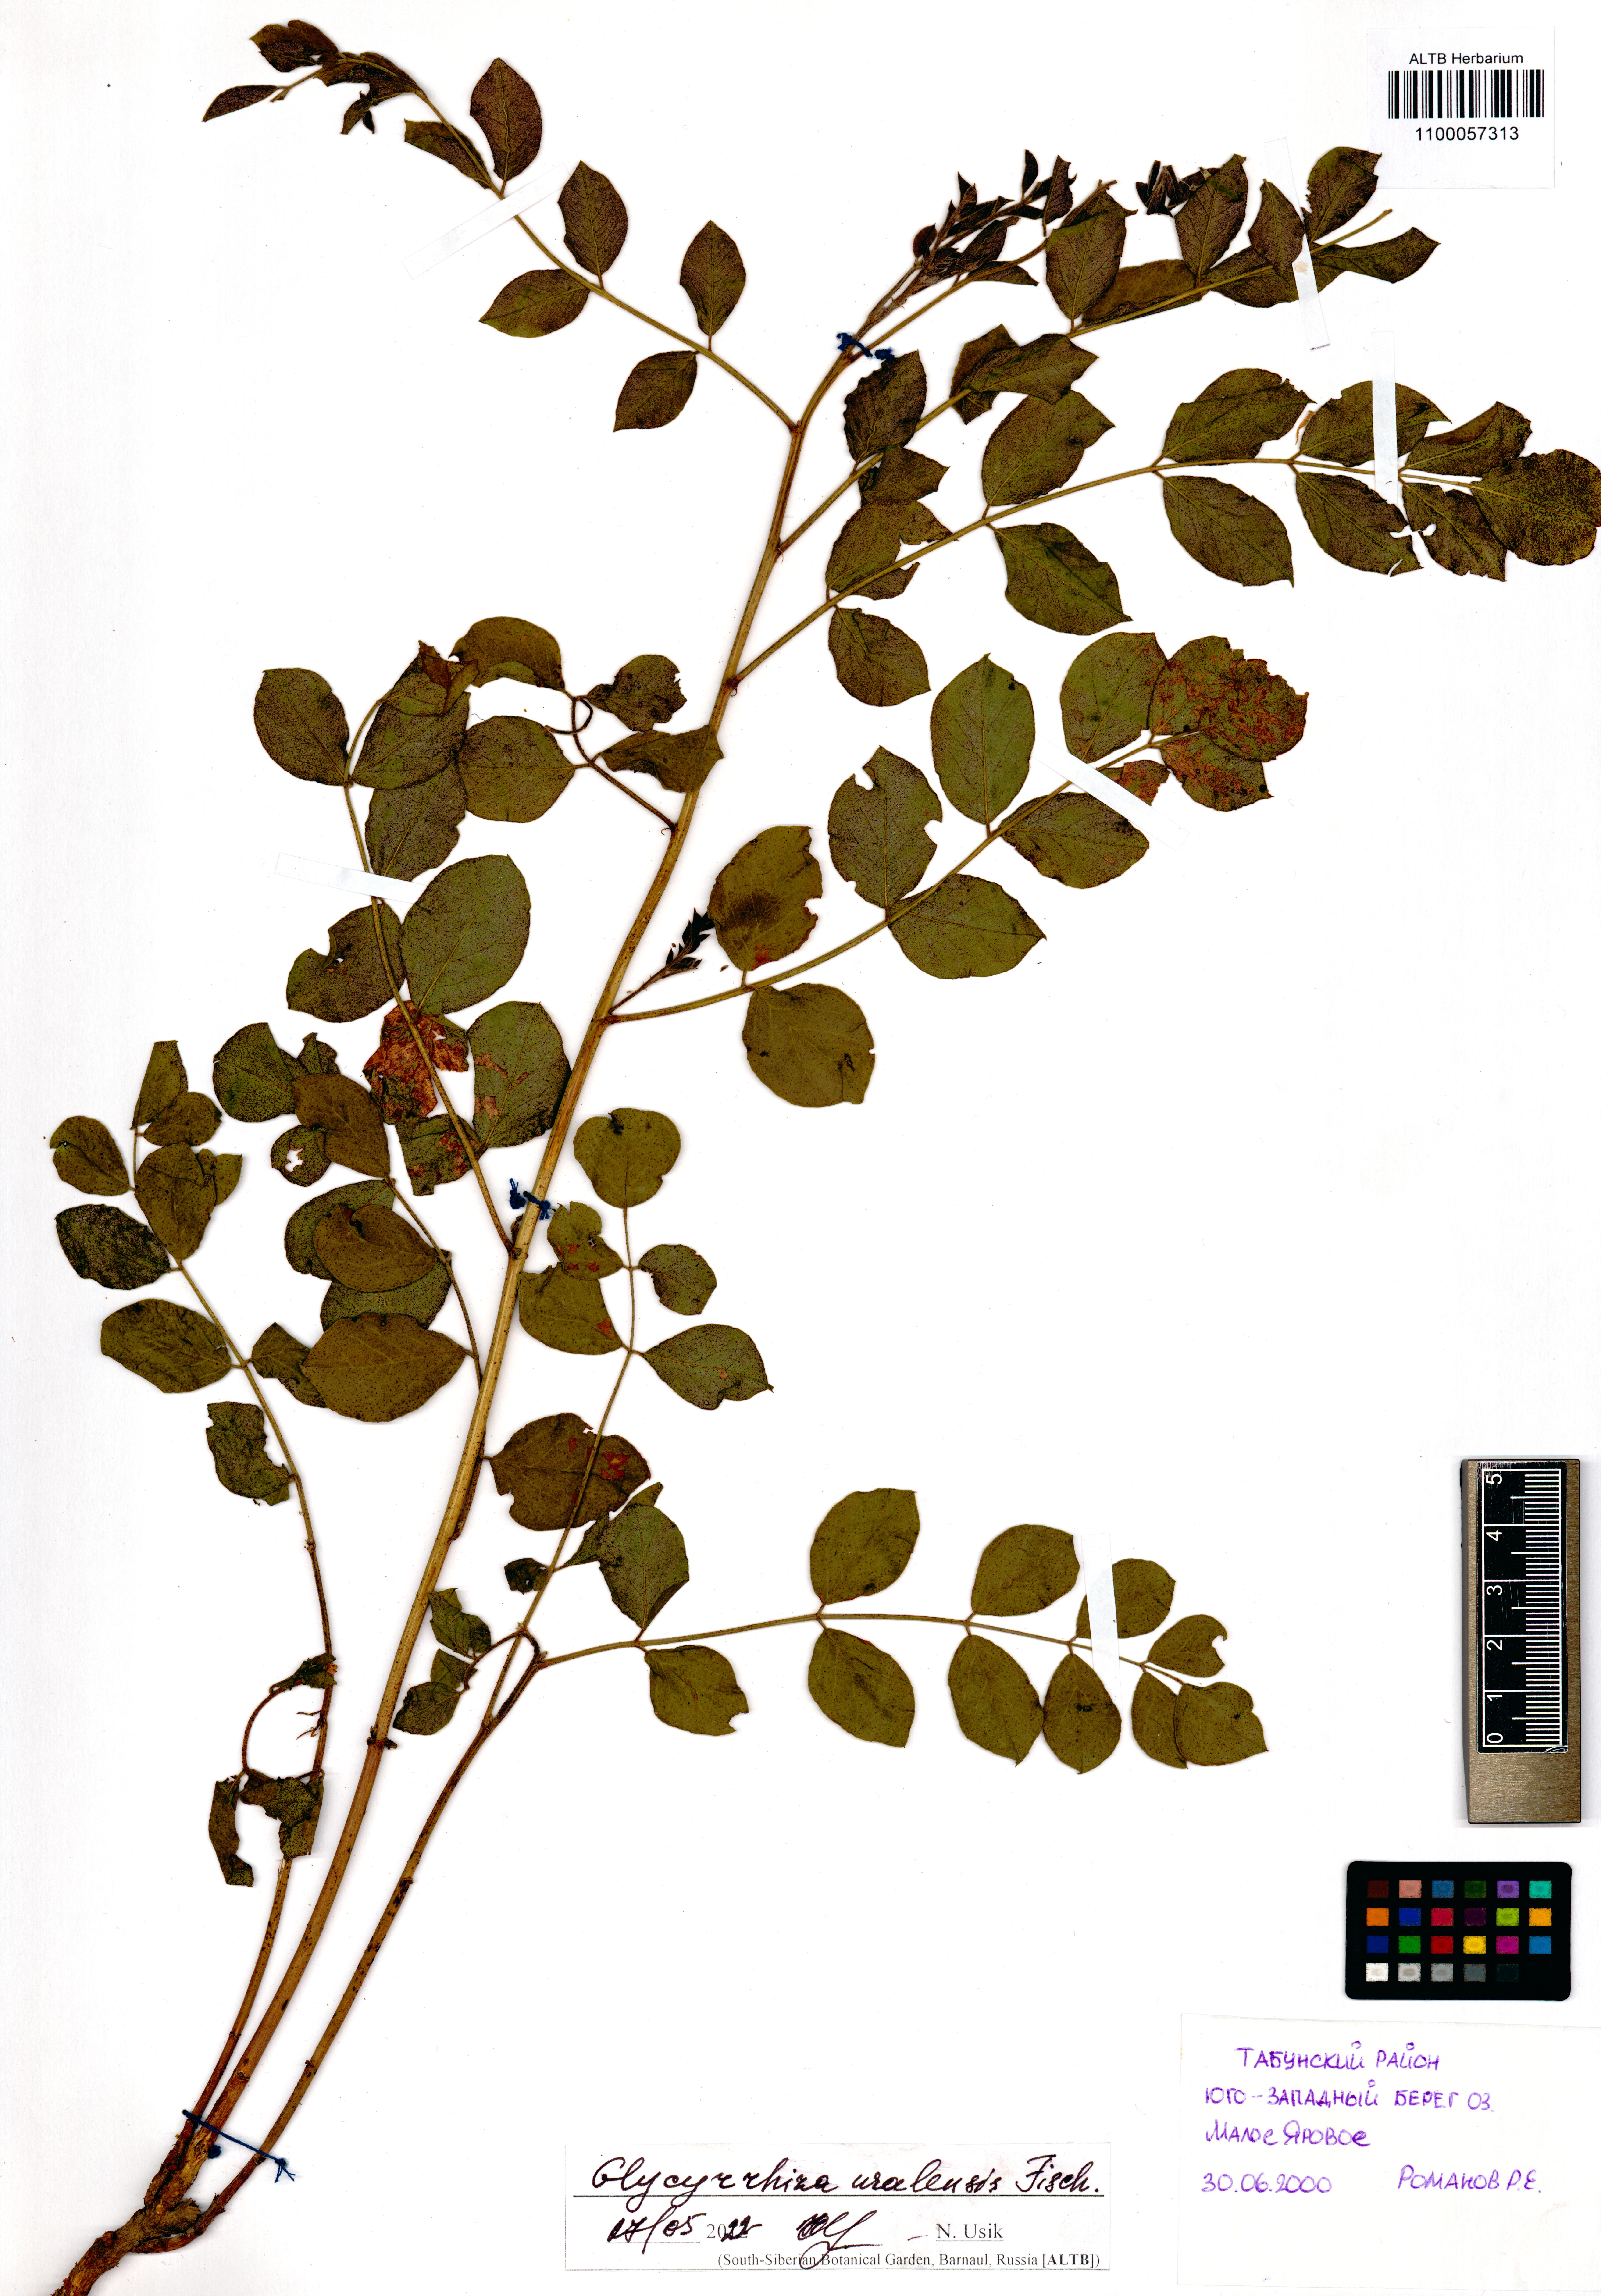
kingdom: Plantae
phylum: Tracheophyta
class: Magnoliopsida
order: Fabales
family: Fabaceae
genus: Glycyrrhiza
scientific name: Glycyrrhiza uralensis
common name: Chinese licorice
